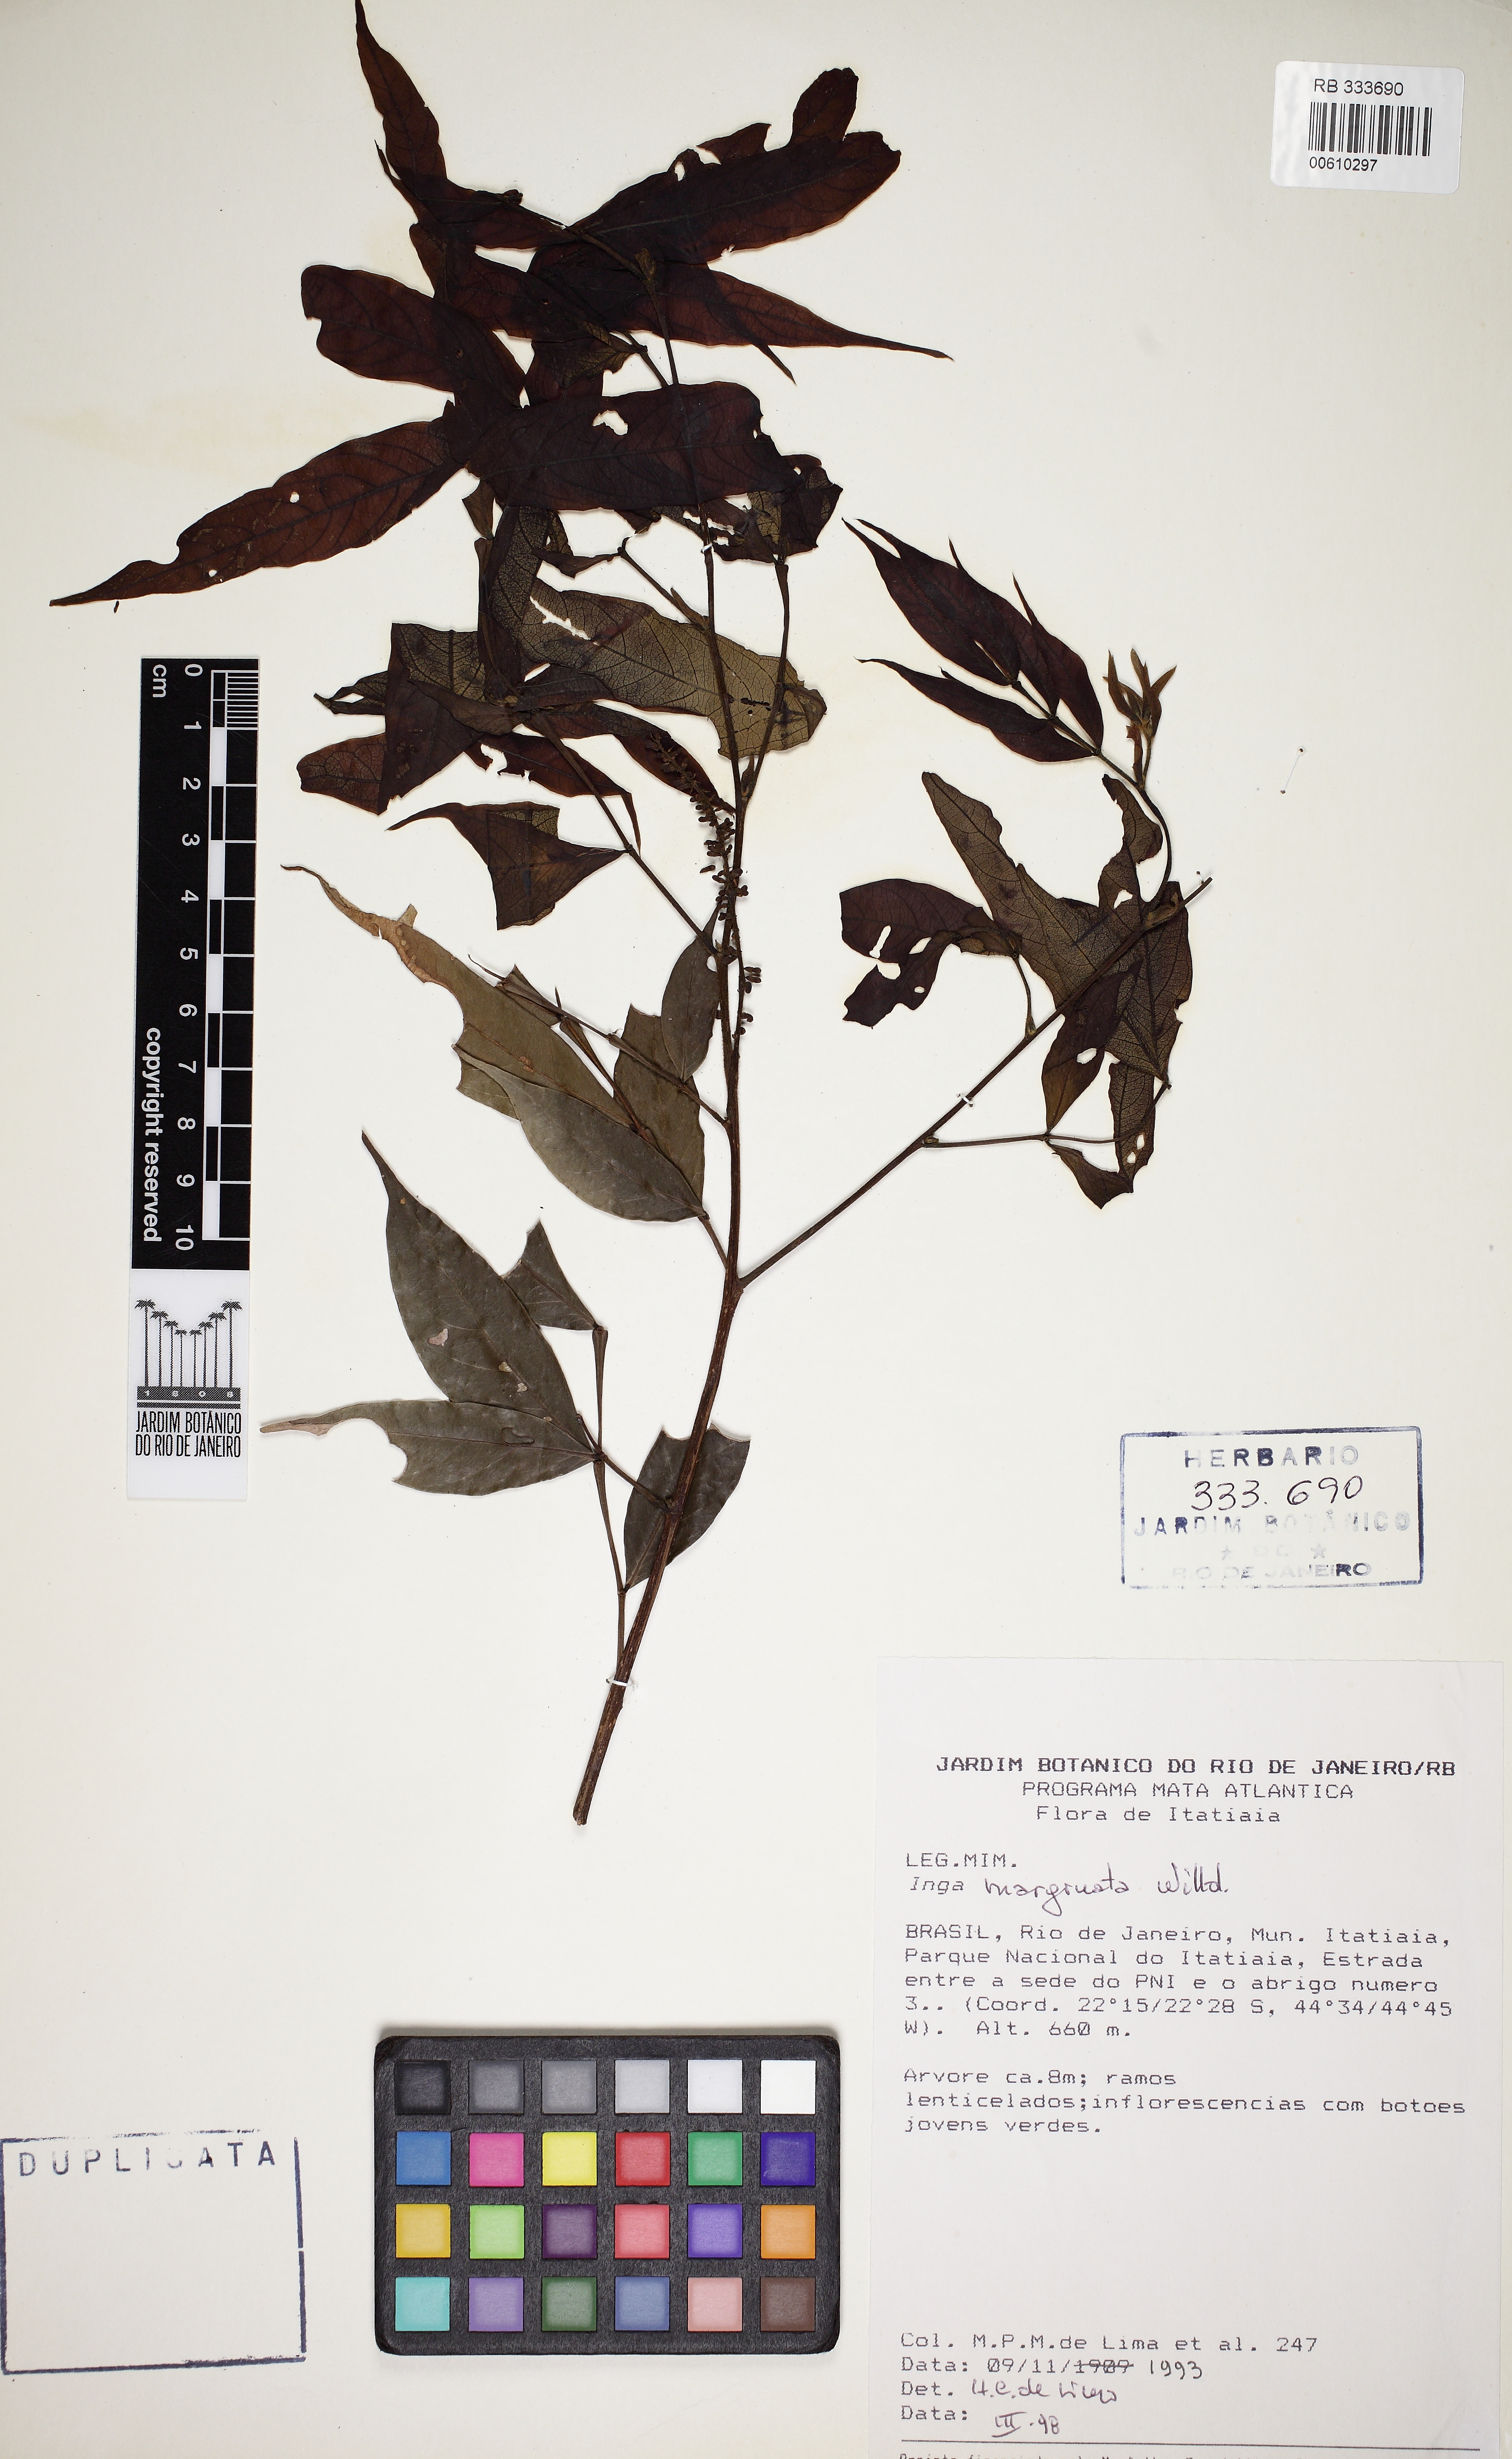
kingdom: Plantae
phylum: Tracheophyta
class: Magnoliopsida
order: Fabales
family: Fabaceae
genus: Inga
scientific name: Inga marginata
